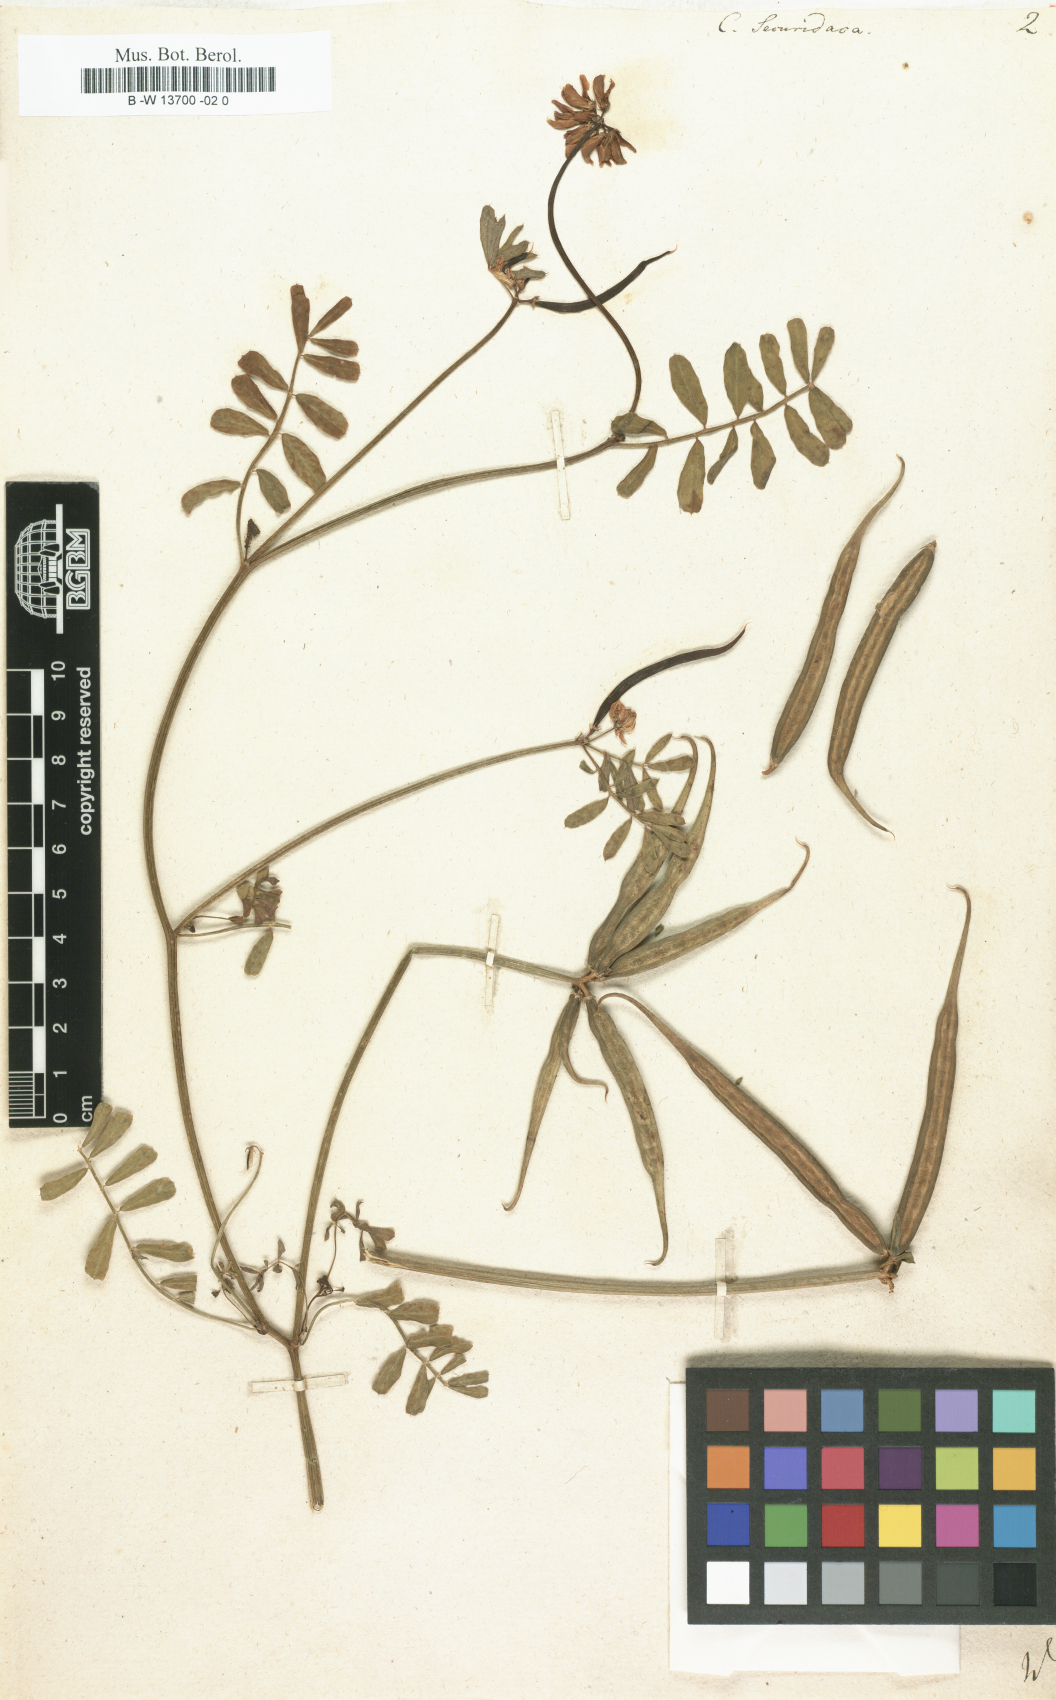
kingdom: Plantae
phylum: Tracheophyta
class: Magnoliopsida
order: Fabales
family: Fabaceae
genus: Coronilla
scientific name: Coronilla securidaca
